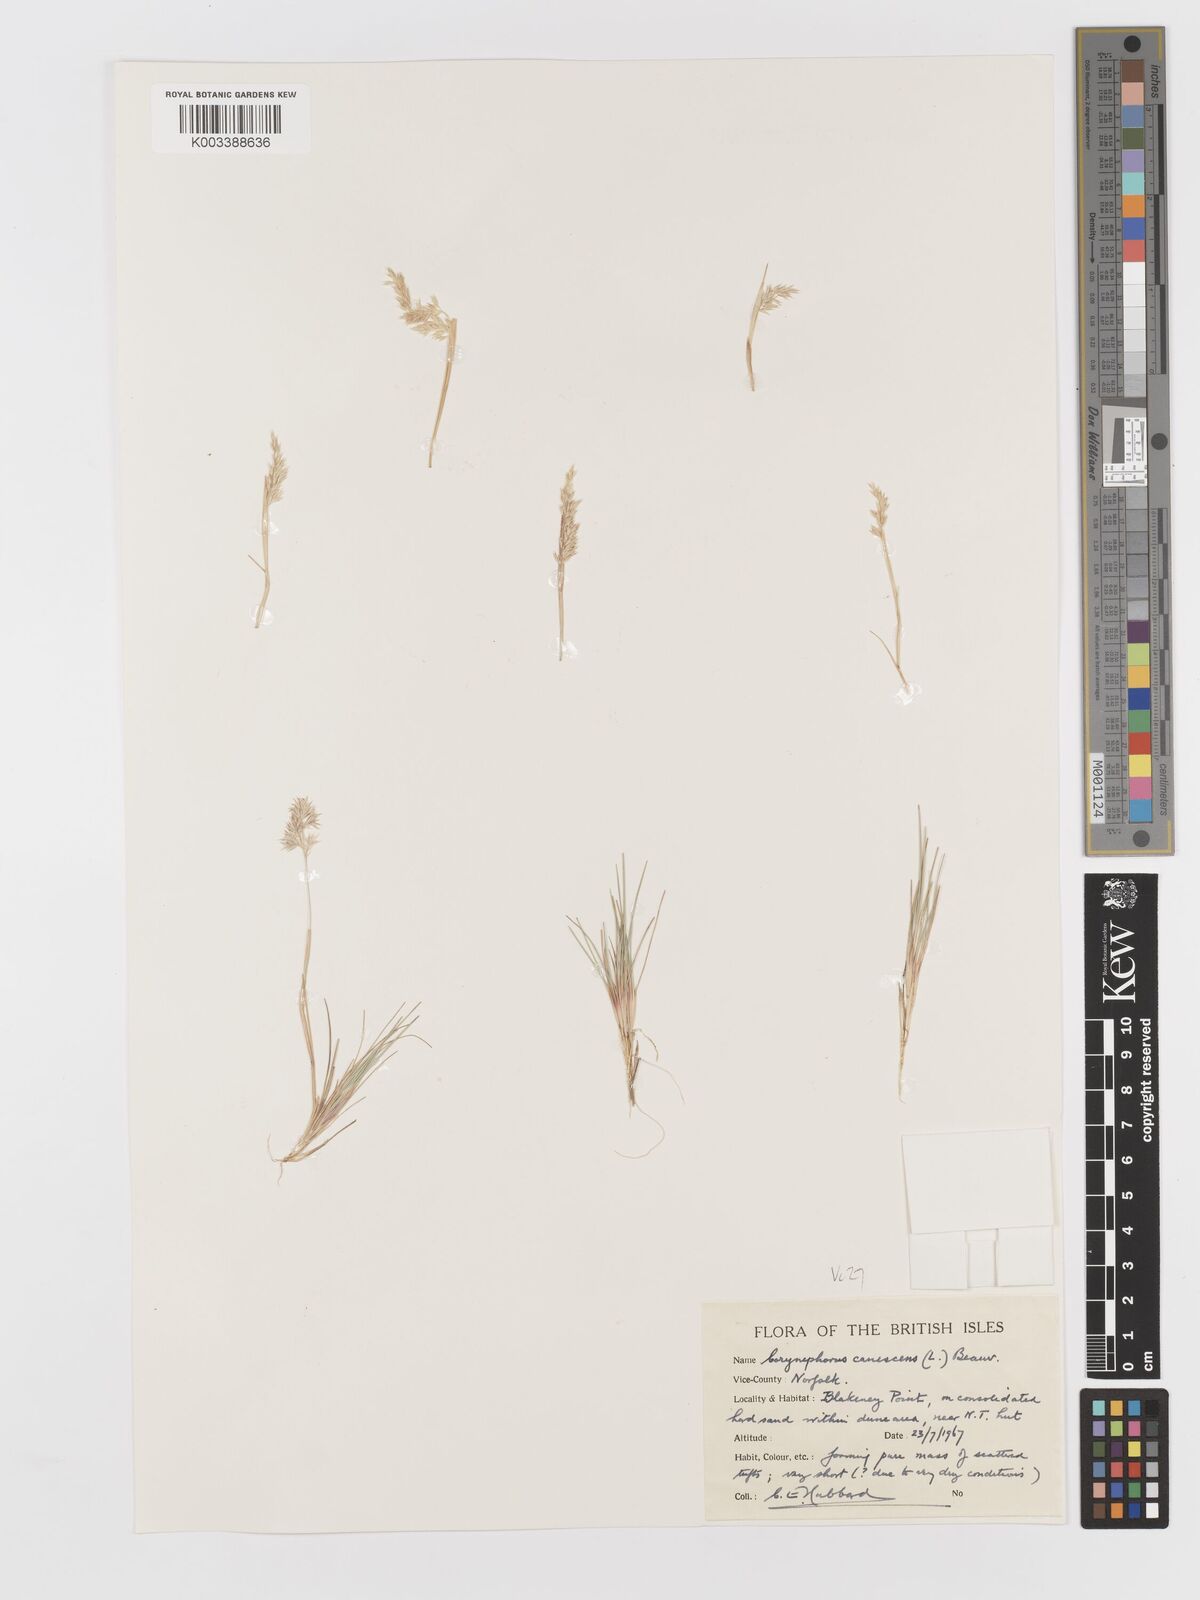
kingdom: Plantae
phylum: Tracheophyta
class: Liliopsida
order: Poales
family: Poaceae
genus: Corynephorus
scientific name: Corynephorus canescens
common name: Grey hair-grass
